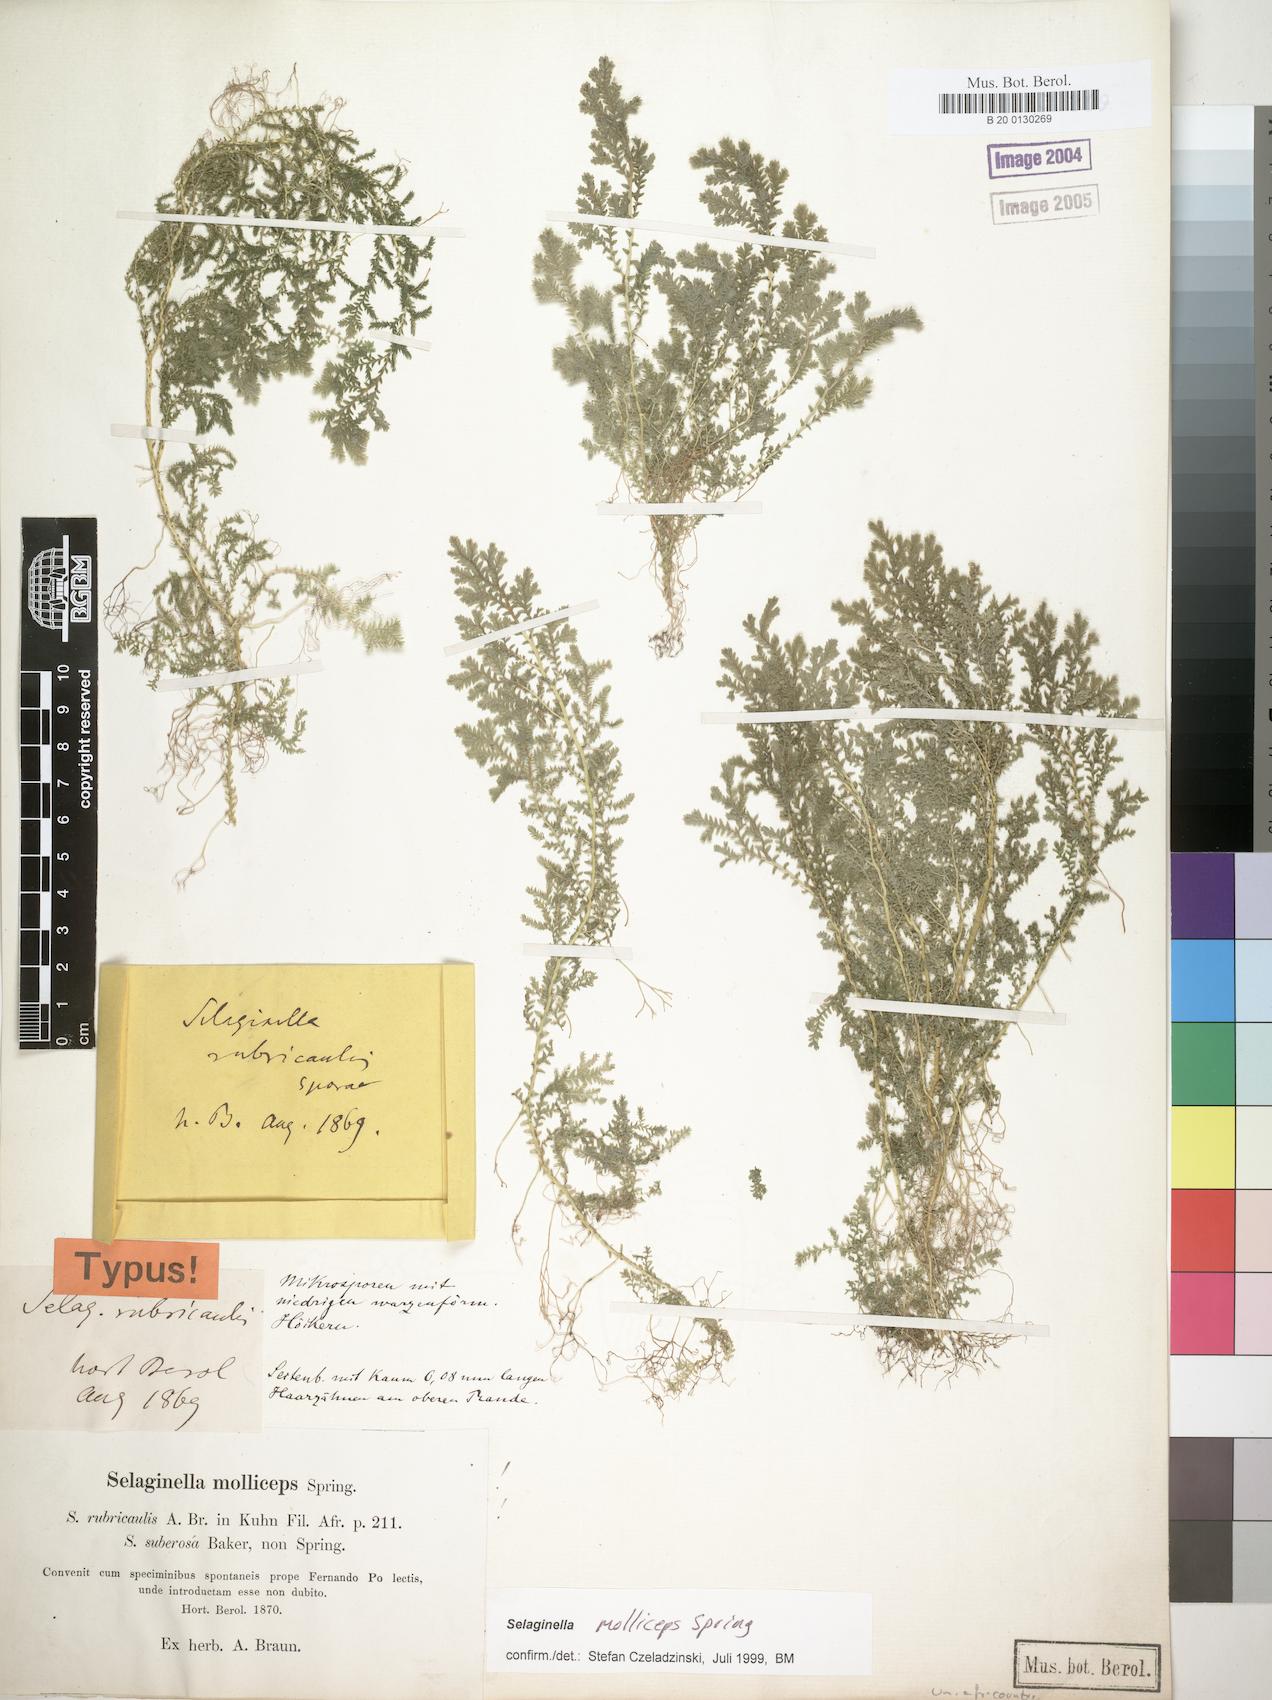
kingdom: Plantae
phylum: Tracheophyta
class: Lycopodiopsida
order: Selaginellales
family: Selaginellaceae
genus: Selaginella
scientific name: Selaginella molliceps
